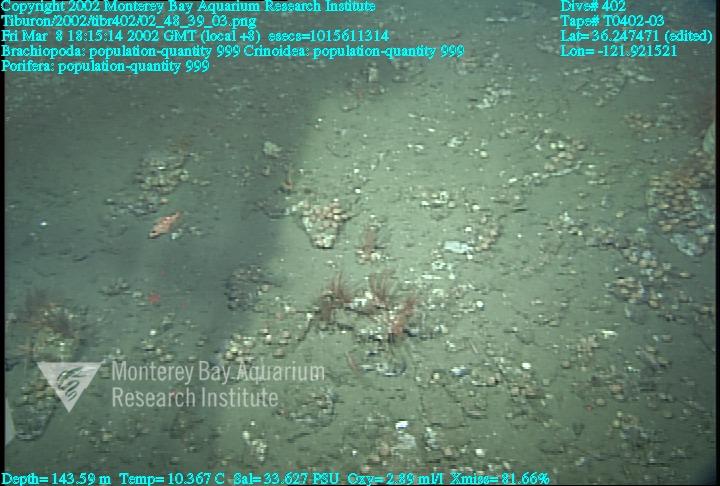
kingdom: Animalia
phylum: Porifera
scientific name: Porifera
